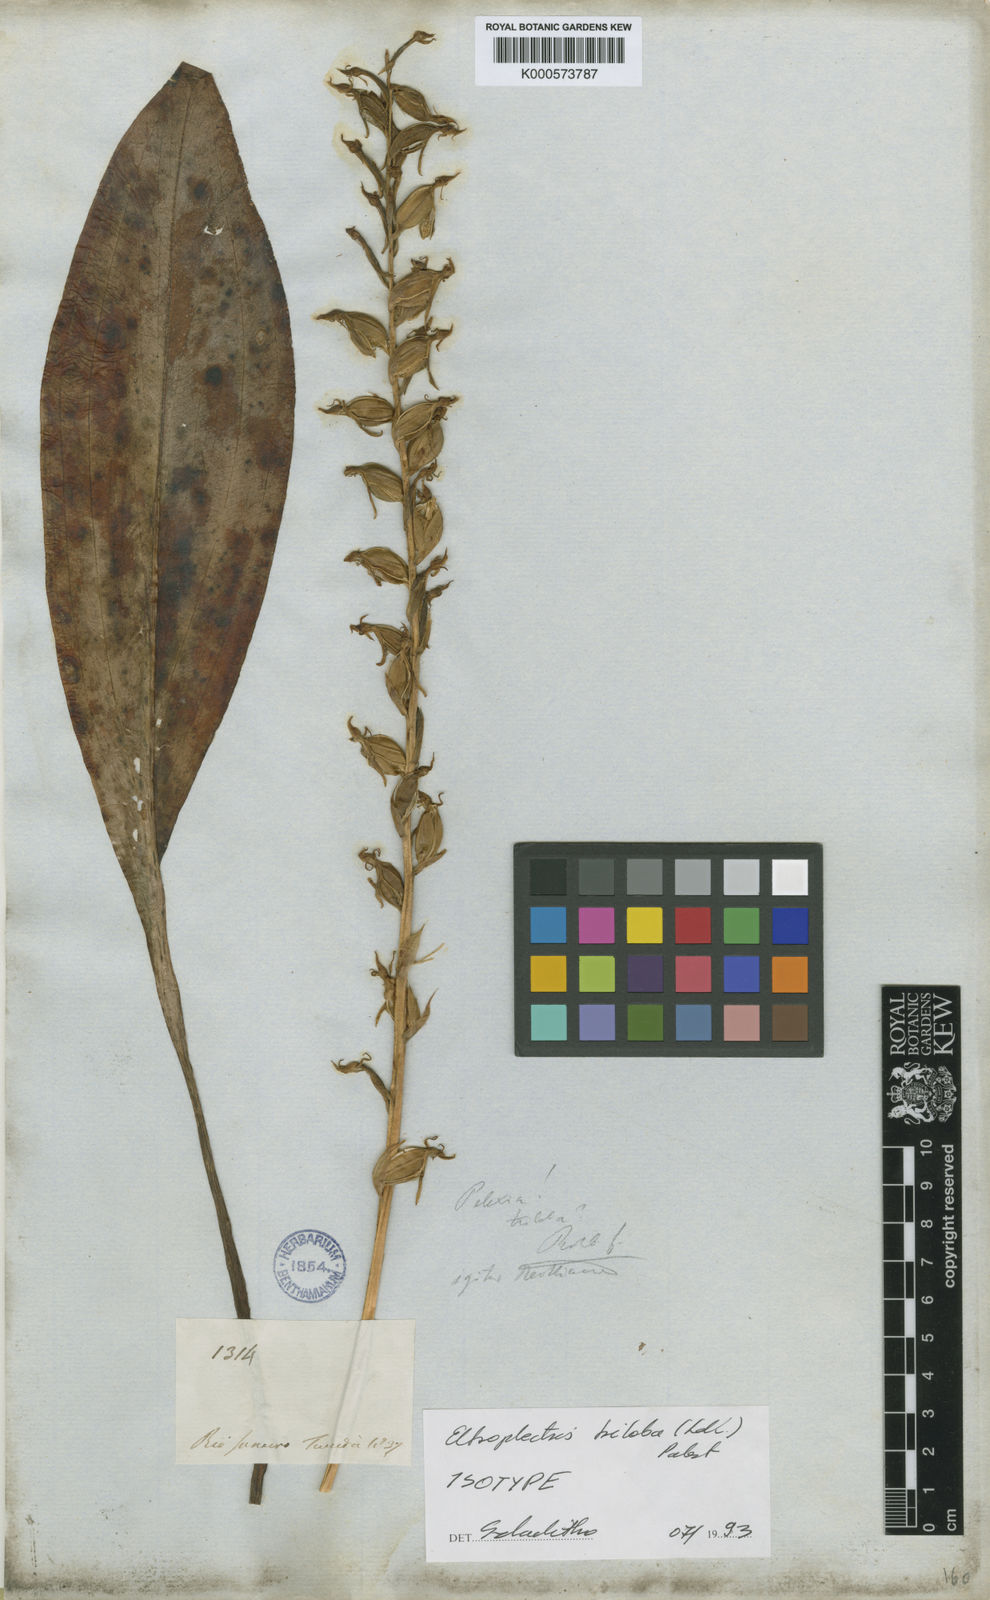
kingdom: Plantae
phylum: Tracheophyta
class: Liliopsida
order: Asparagales
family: Orchidaceae
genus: Eltroplectris
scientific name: Eltroplectris triloba
